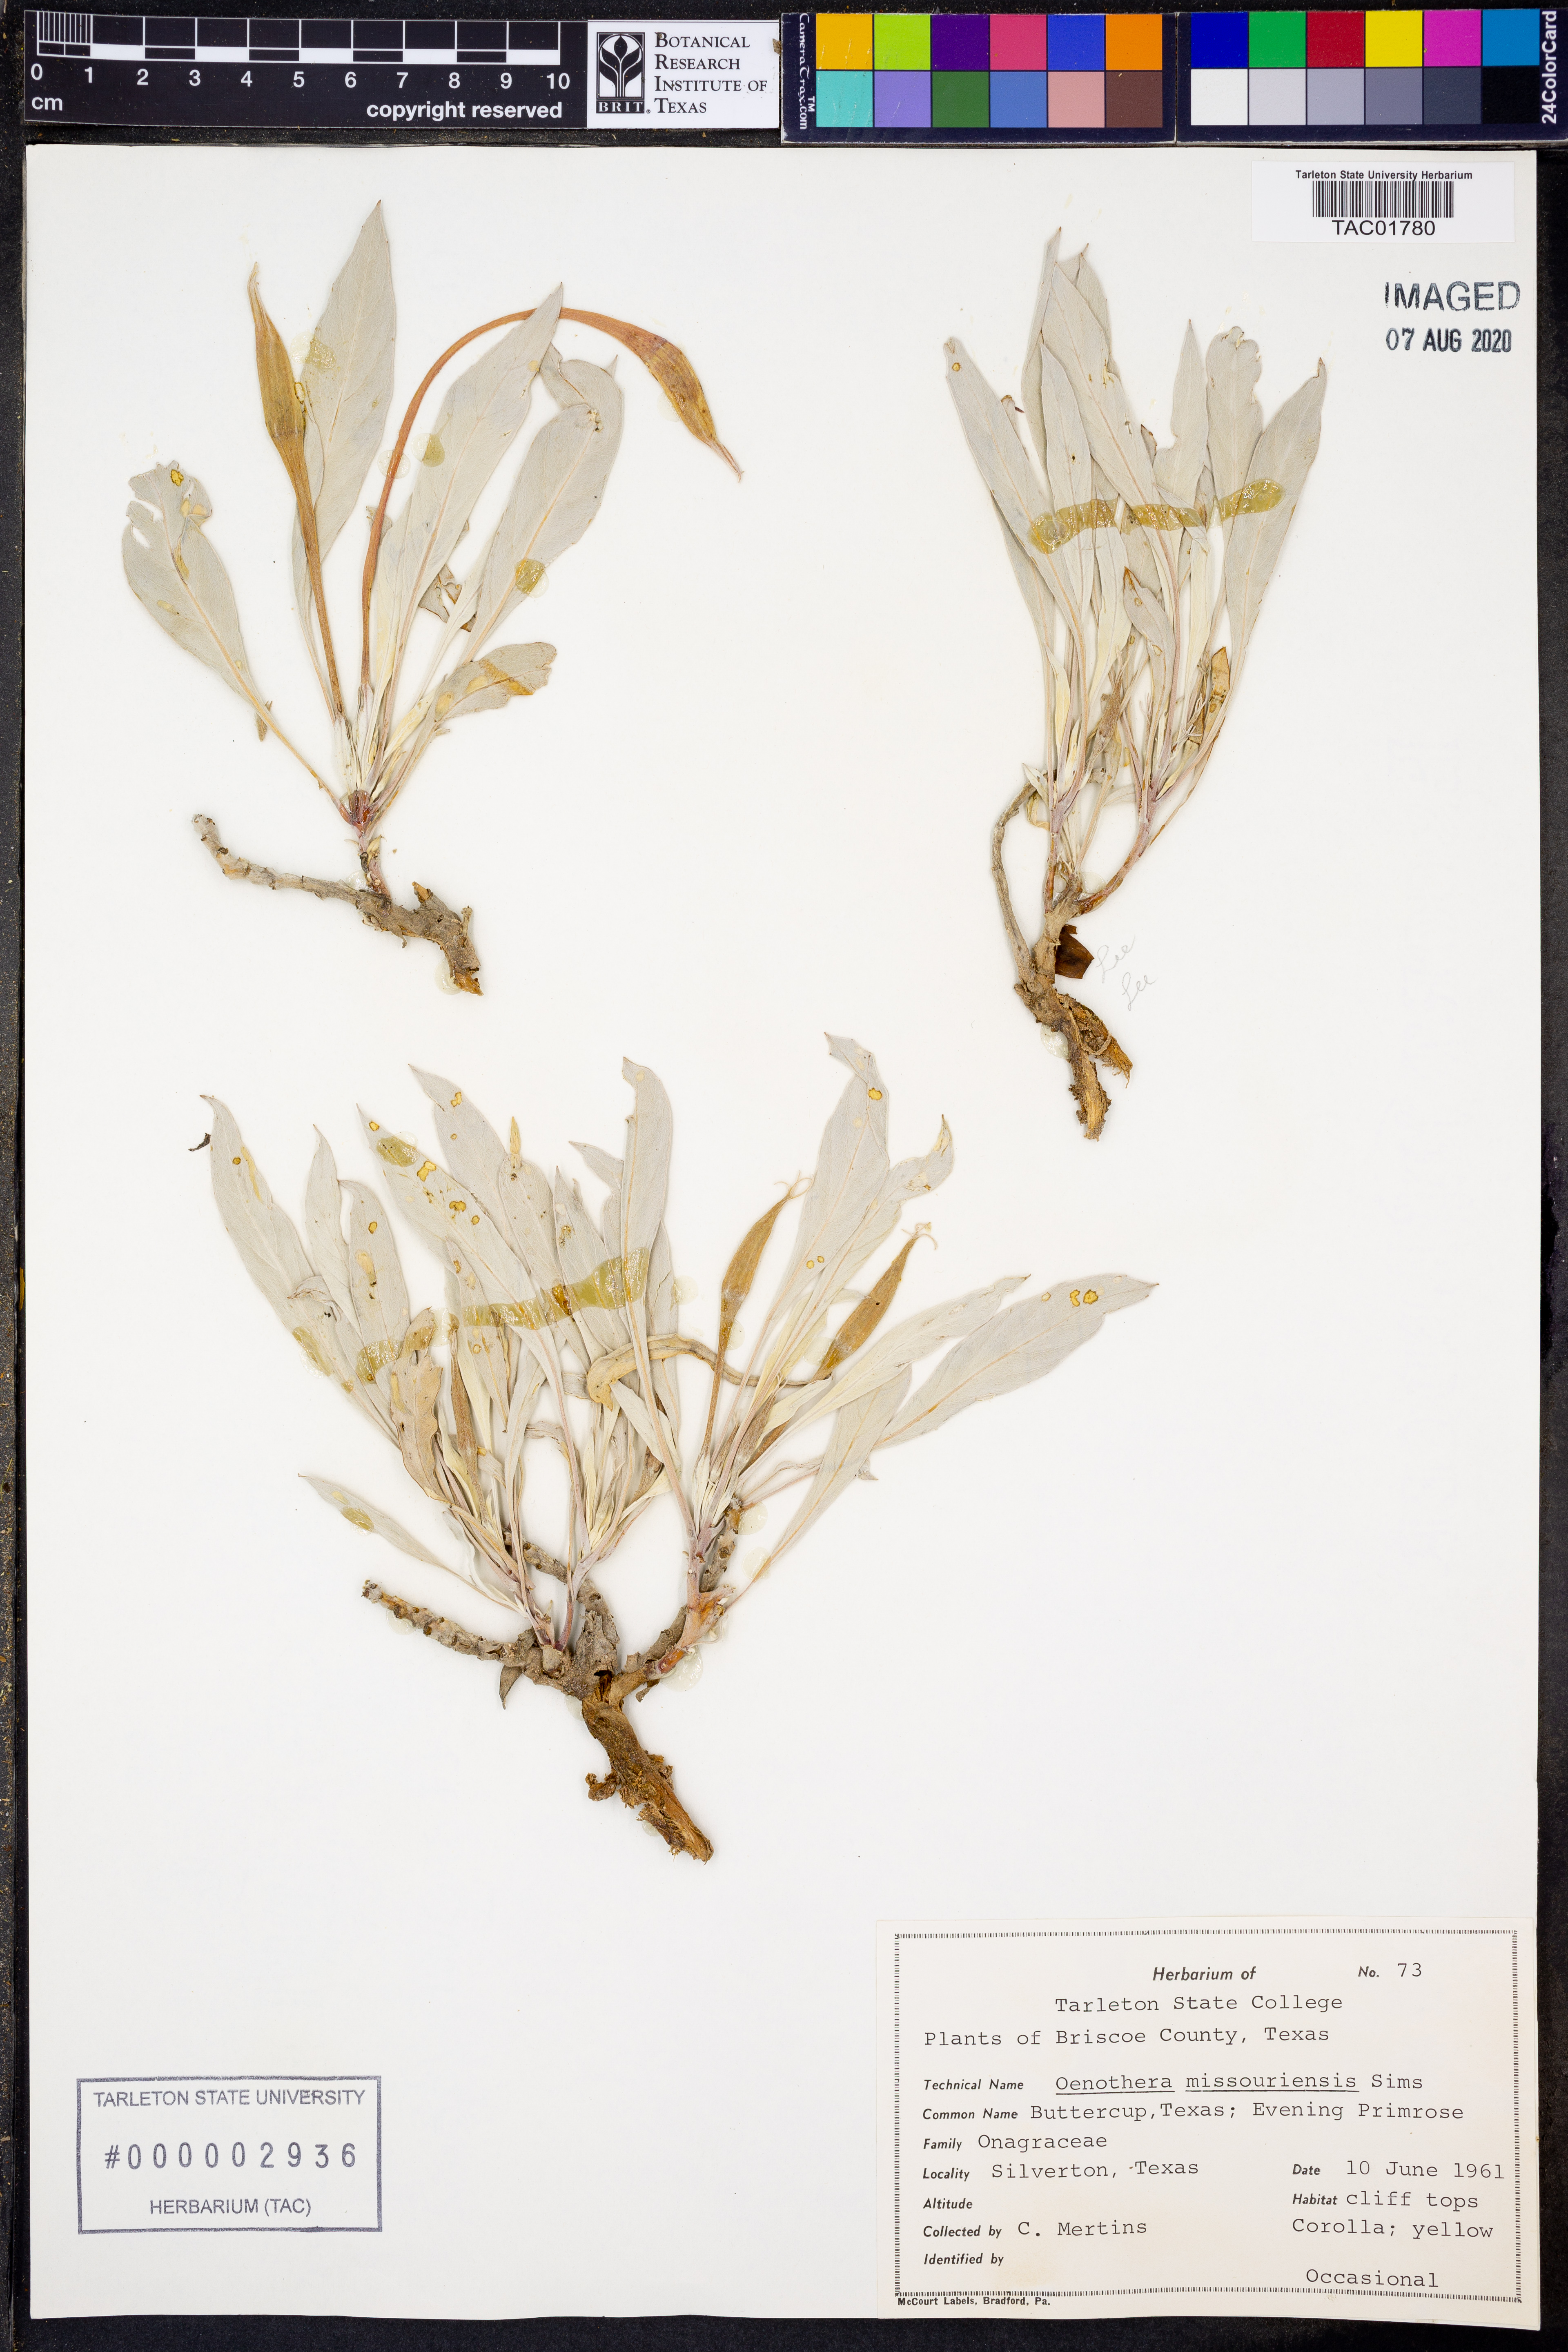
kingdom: Plantae
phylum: Tracheophyta
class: Magnoliopsida
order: Myrtales
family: Onagraceae
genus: Oenothera
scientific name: Oenothera macrocarpa
